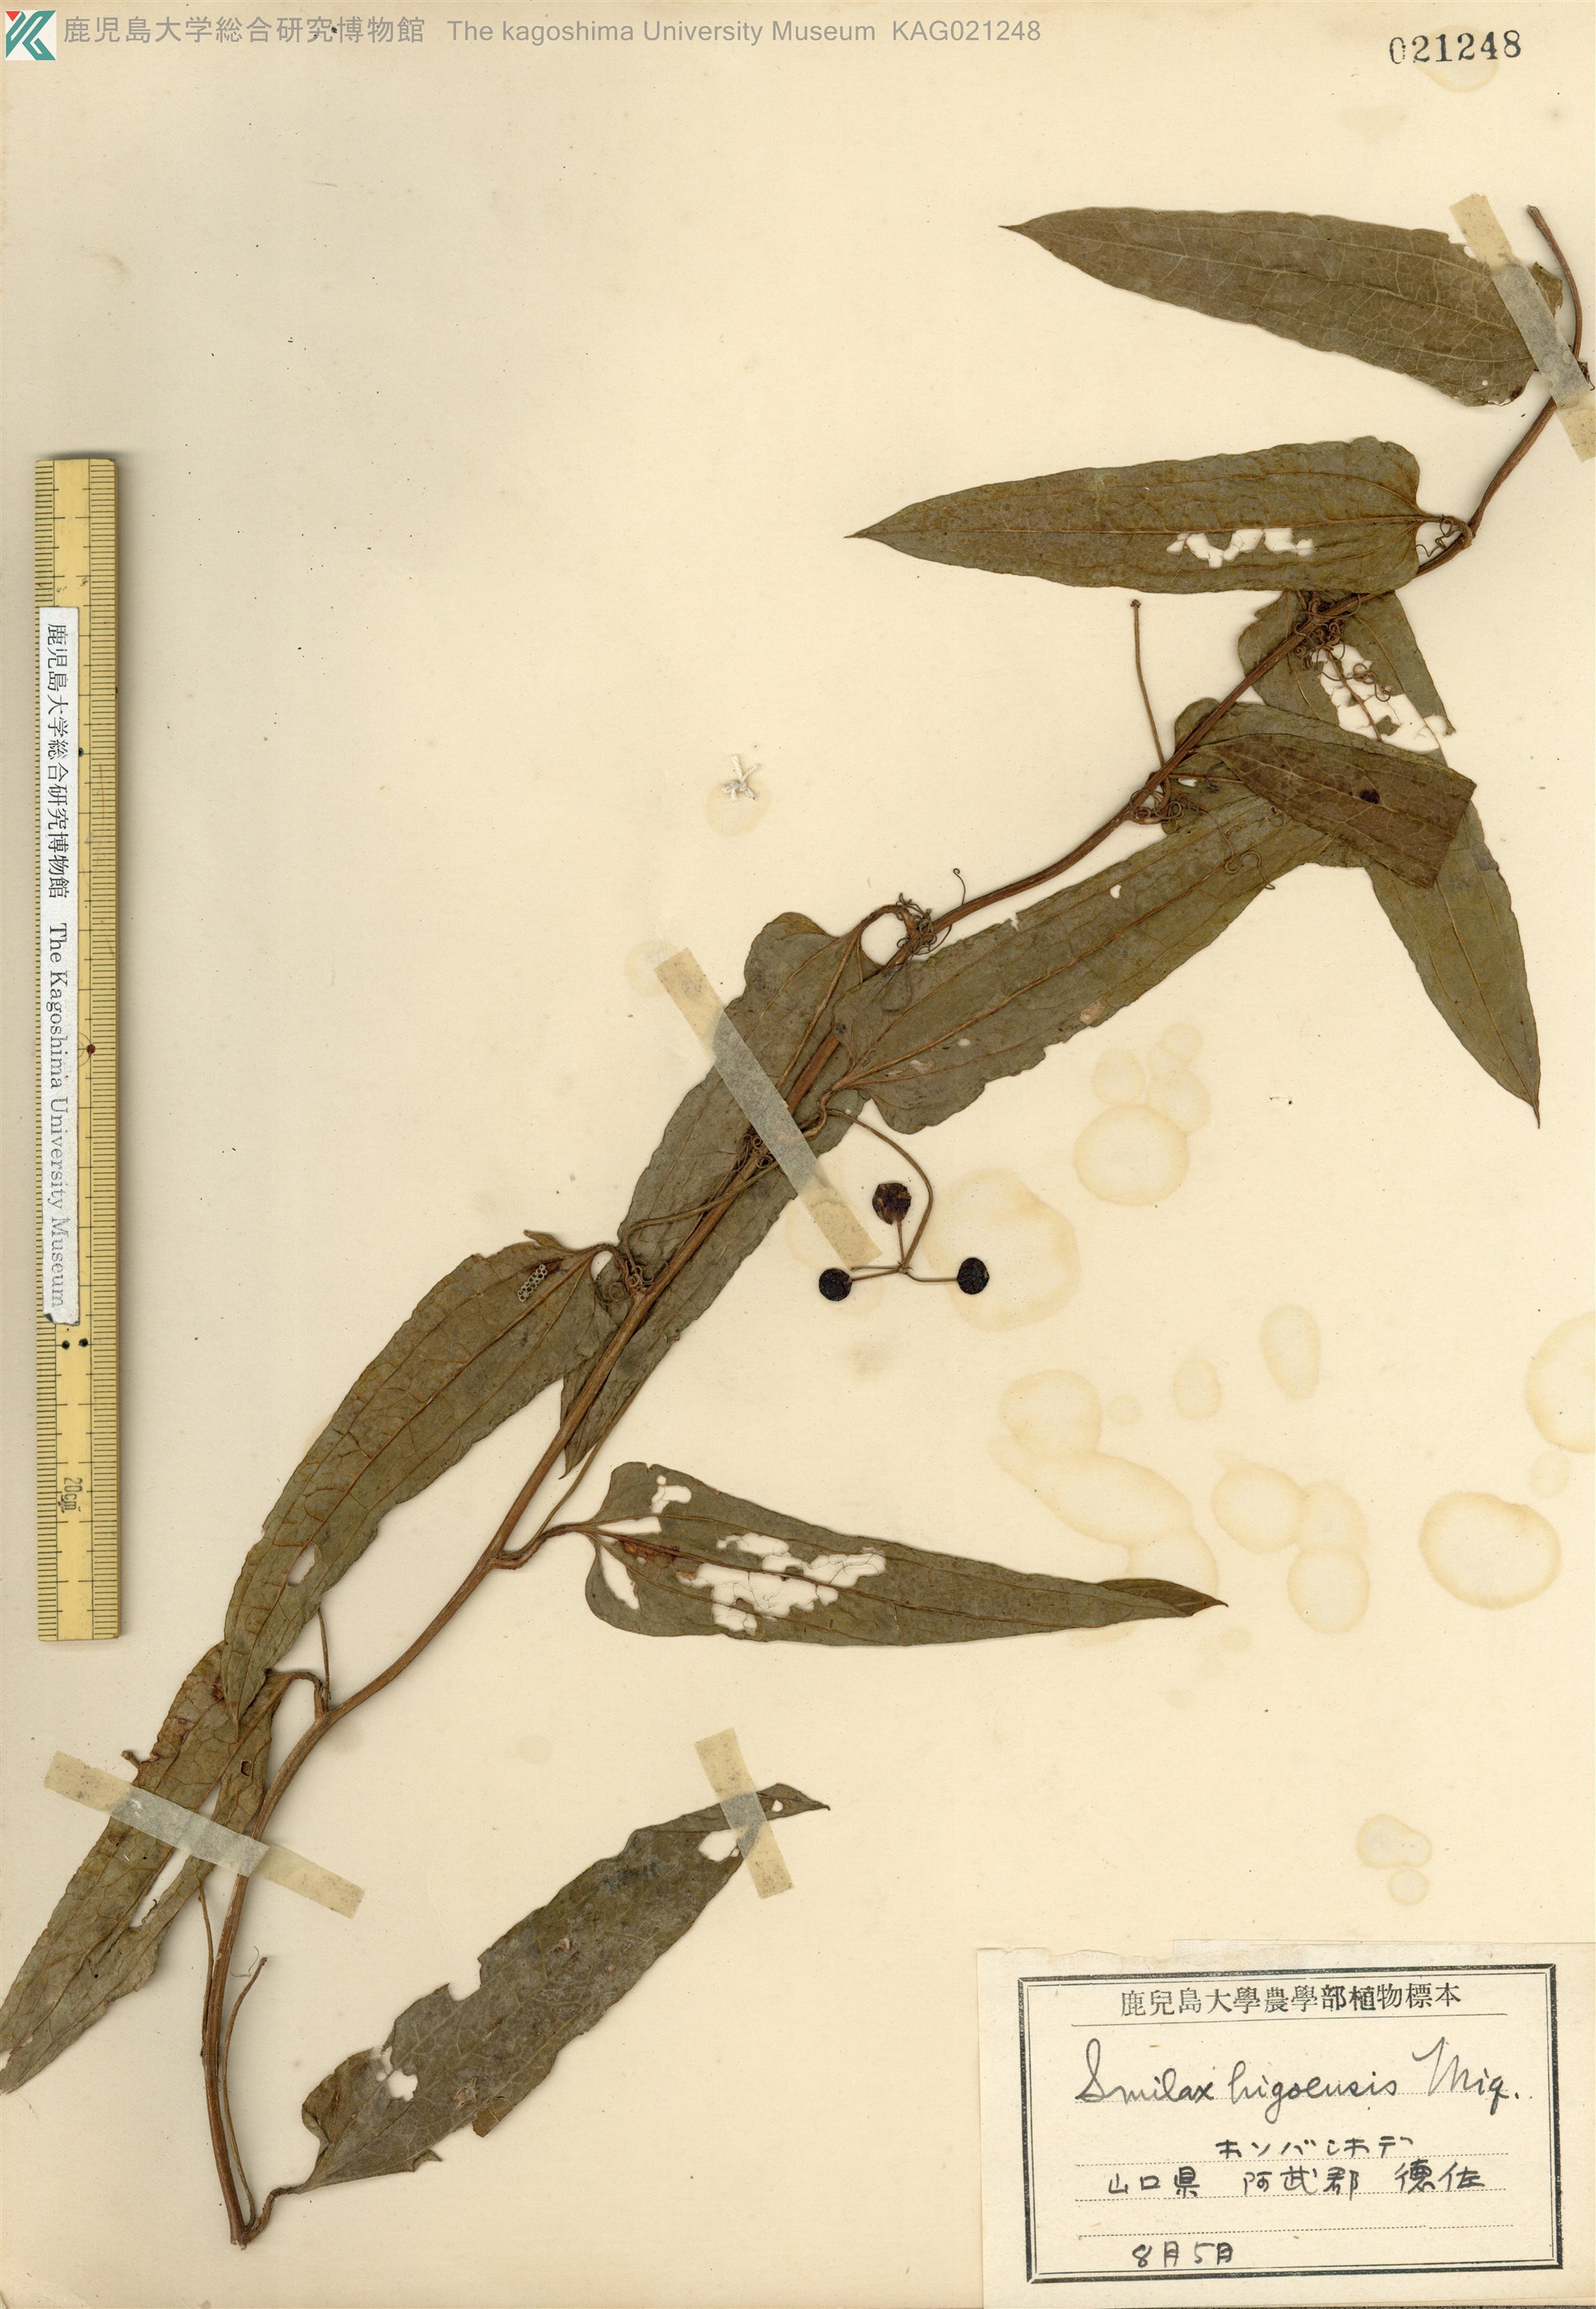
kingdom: Plantae
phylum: Tracheophyta
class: Liliopsida
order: Liliales
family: Smilacaceae
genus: Smilax
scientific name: Smilax riparia
